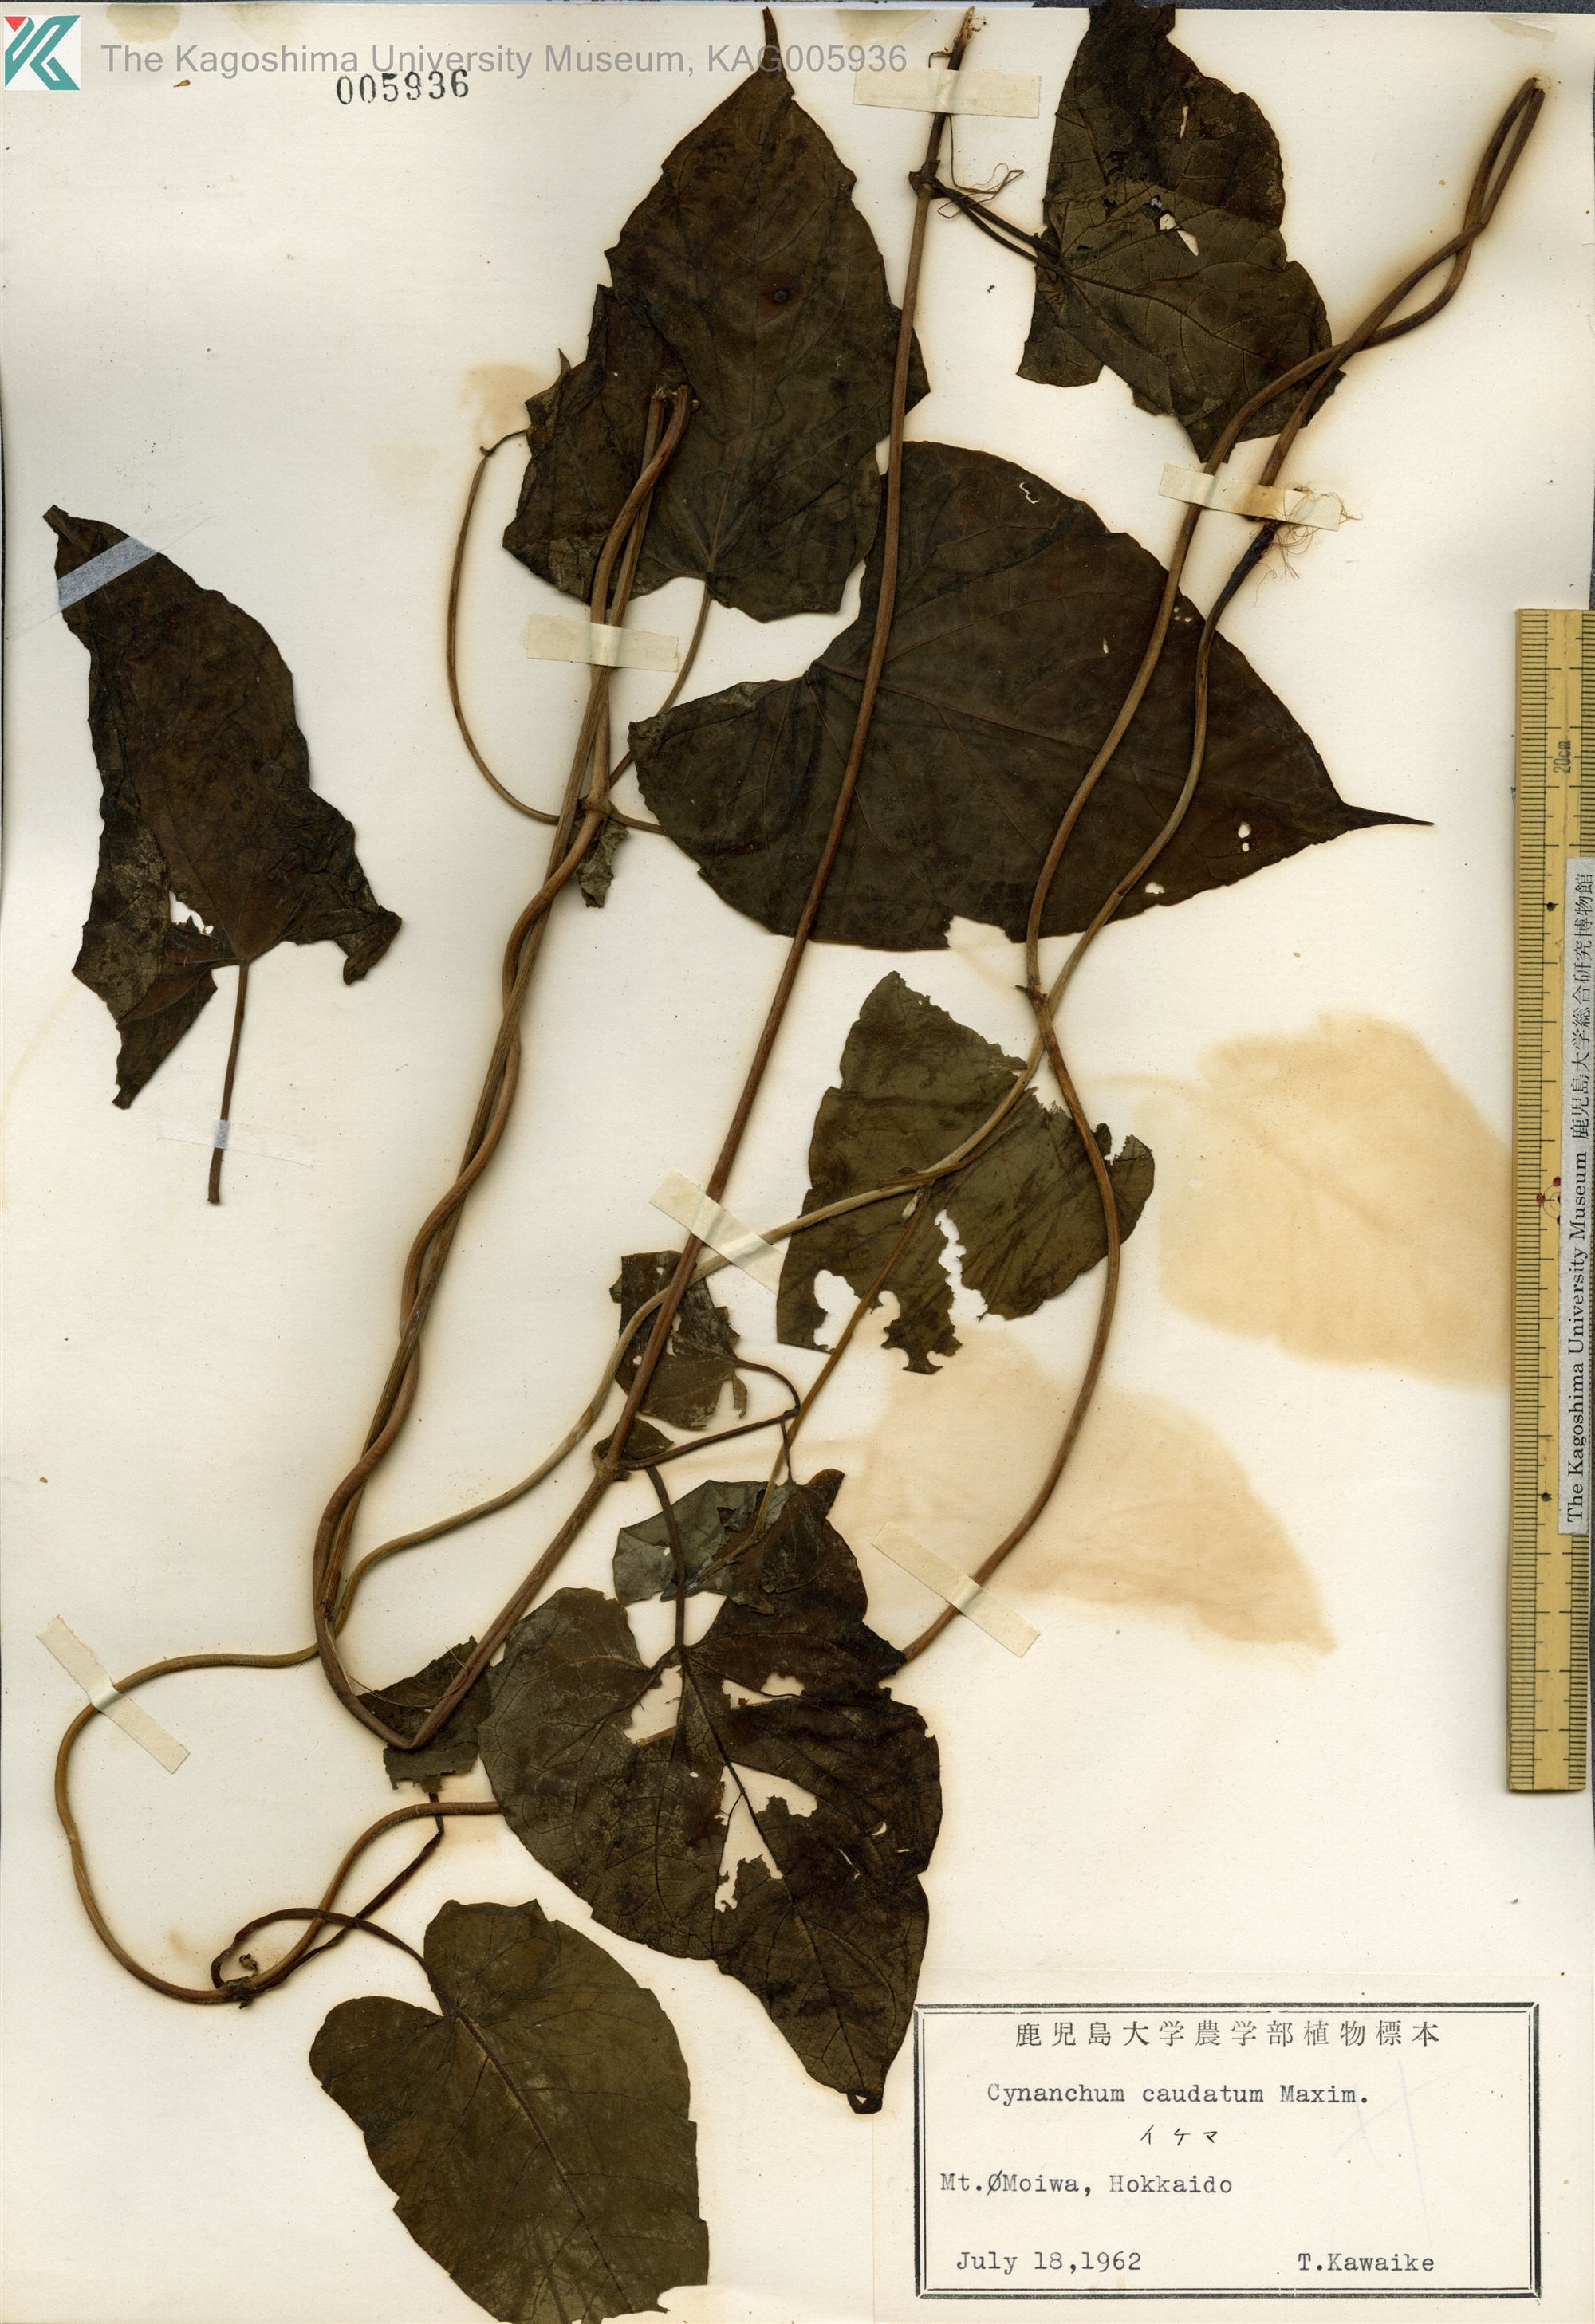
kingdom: Plantae
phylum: Tracheophyta
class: Magnoliopsida
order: Gentianales
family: Apocynaceae
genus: Orthosia
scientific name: Orthosia virgata
